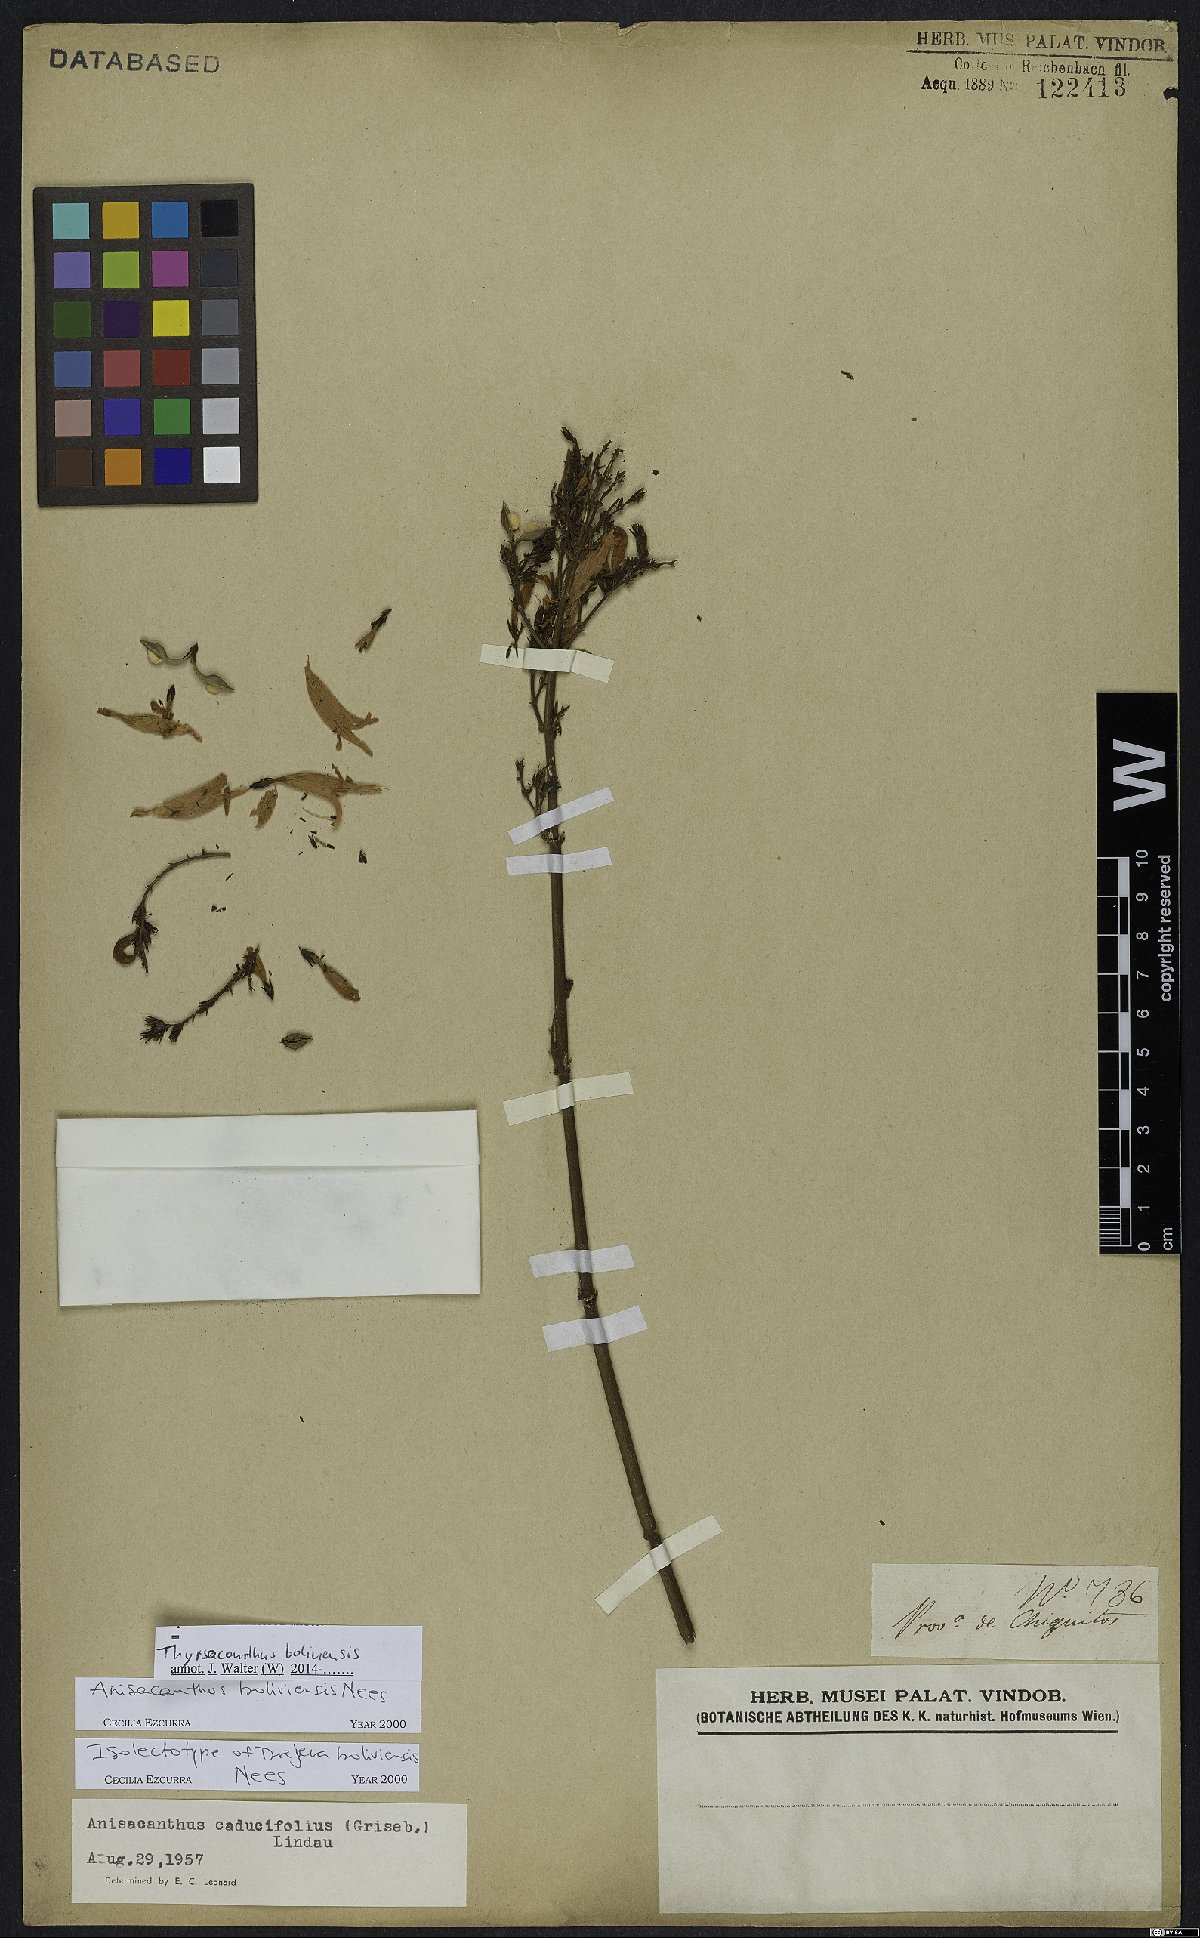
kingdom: Plantae
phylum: Tracheophyta
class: Magnoliopsida
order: Lamiales
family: Acanthaceae
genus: Thyrsacanthus
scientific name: Thyrsacanthus boliviensis
